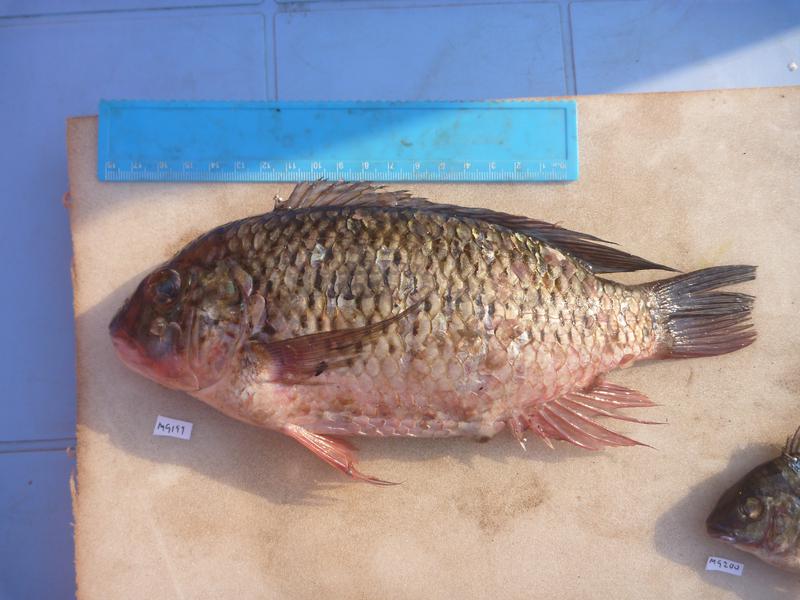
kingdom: Animalia
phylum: Chordata
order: Perciformes
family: Cichlidae
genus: Coptodon
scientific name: Coptodon rendalli
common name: Redbreast tilapia
